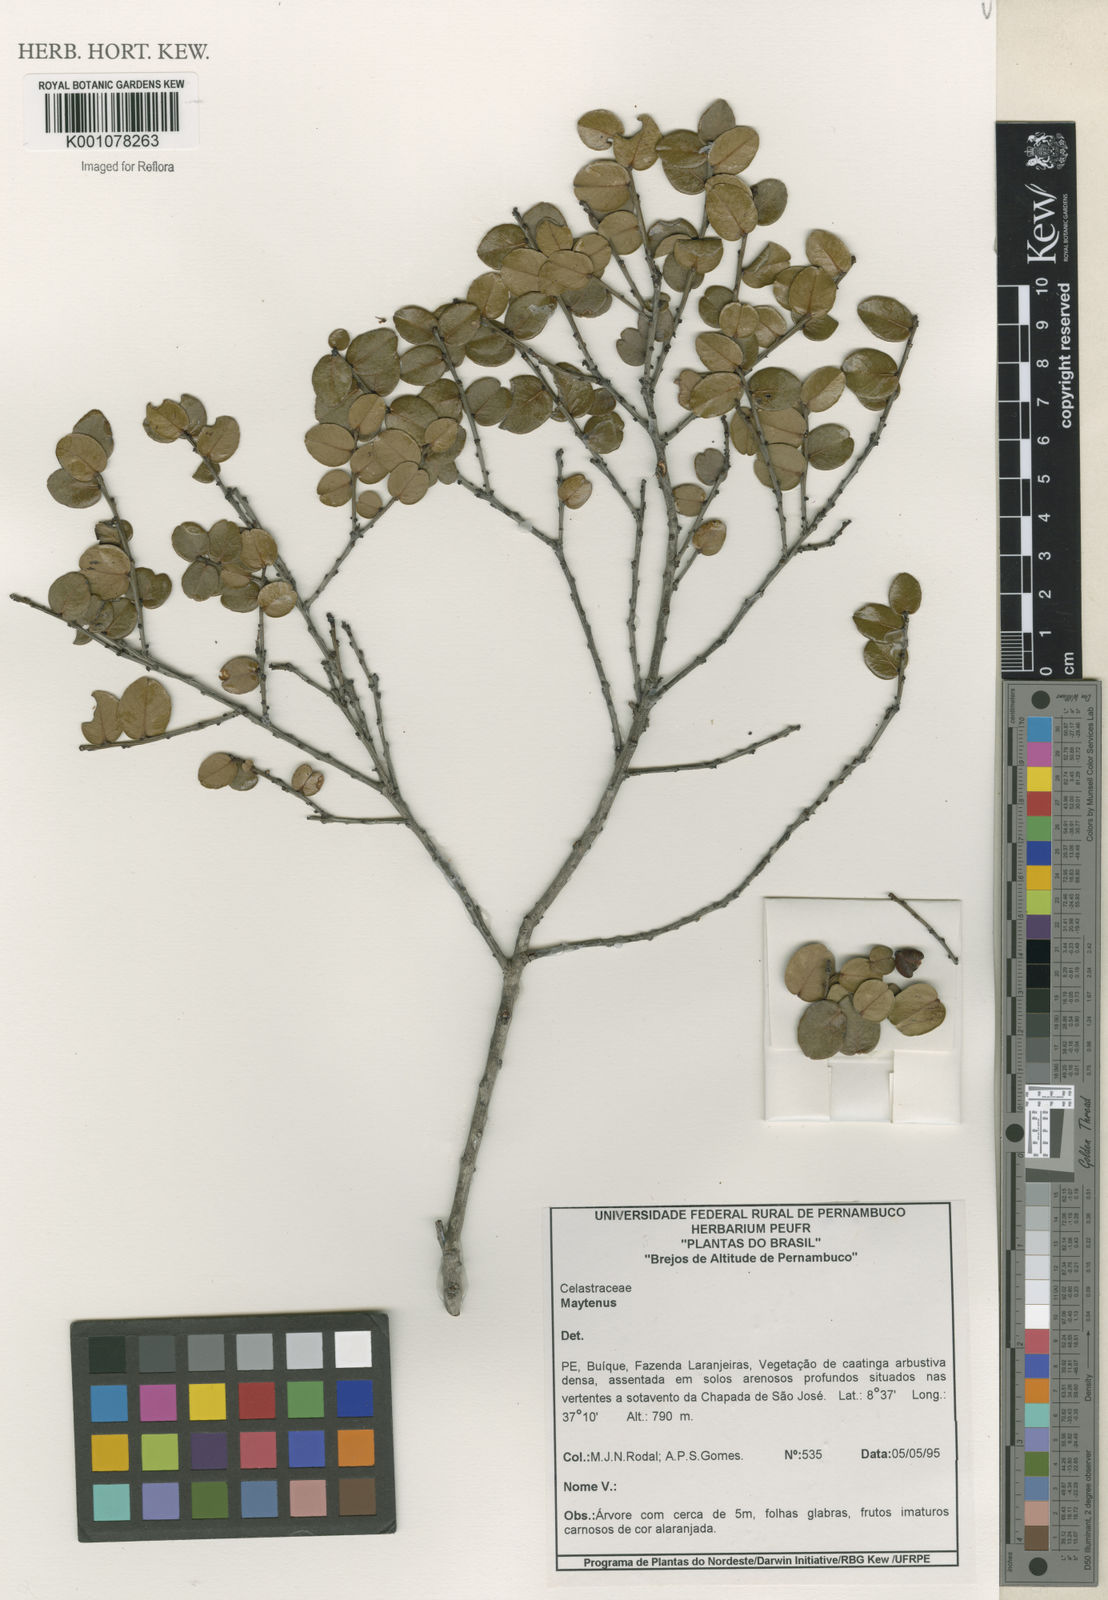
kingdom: Plantae
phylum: Tracheophyta
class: Magnoliopsida
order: Celastrales
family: Celastraceae
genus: Maytenus
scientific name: Maytenus
